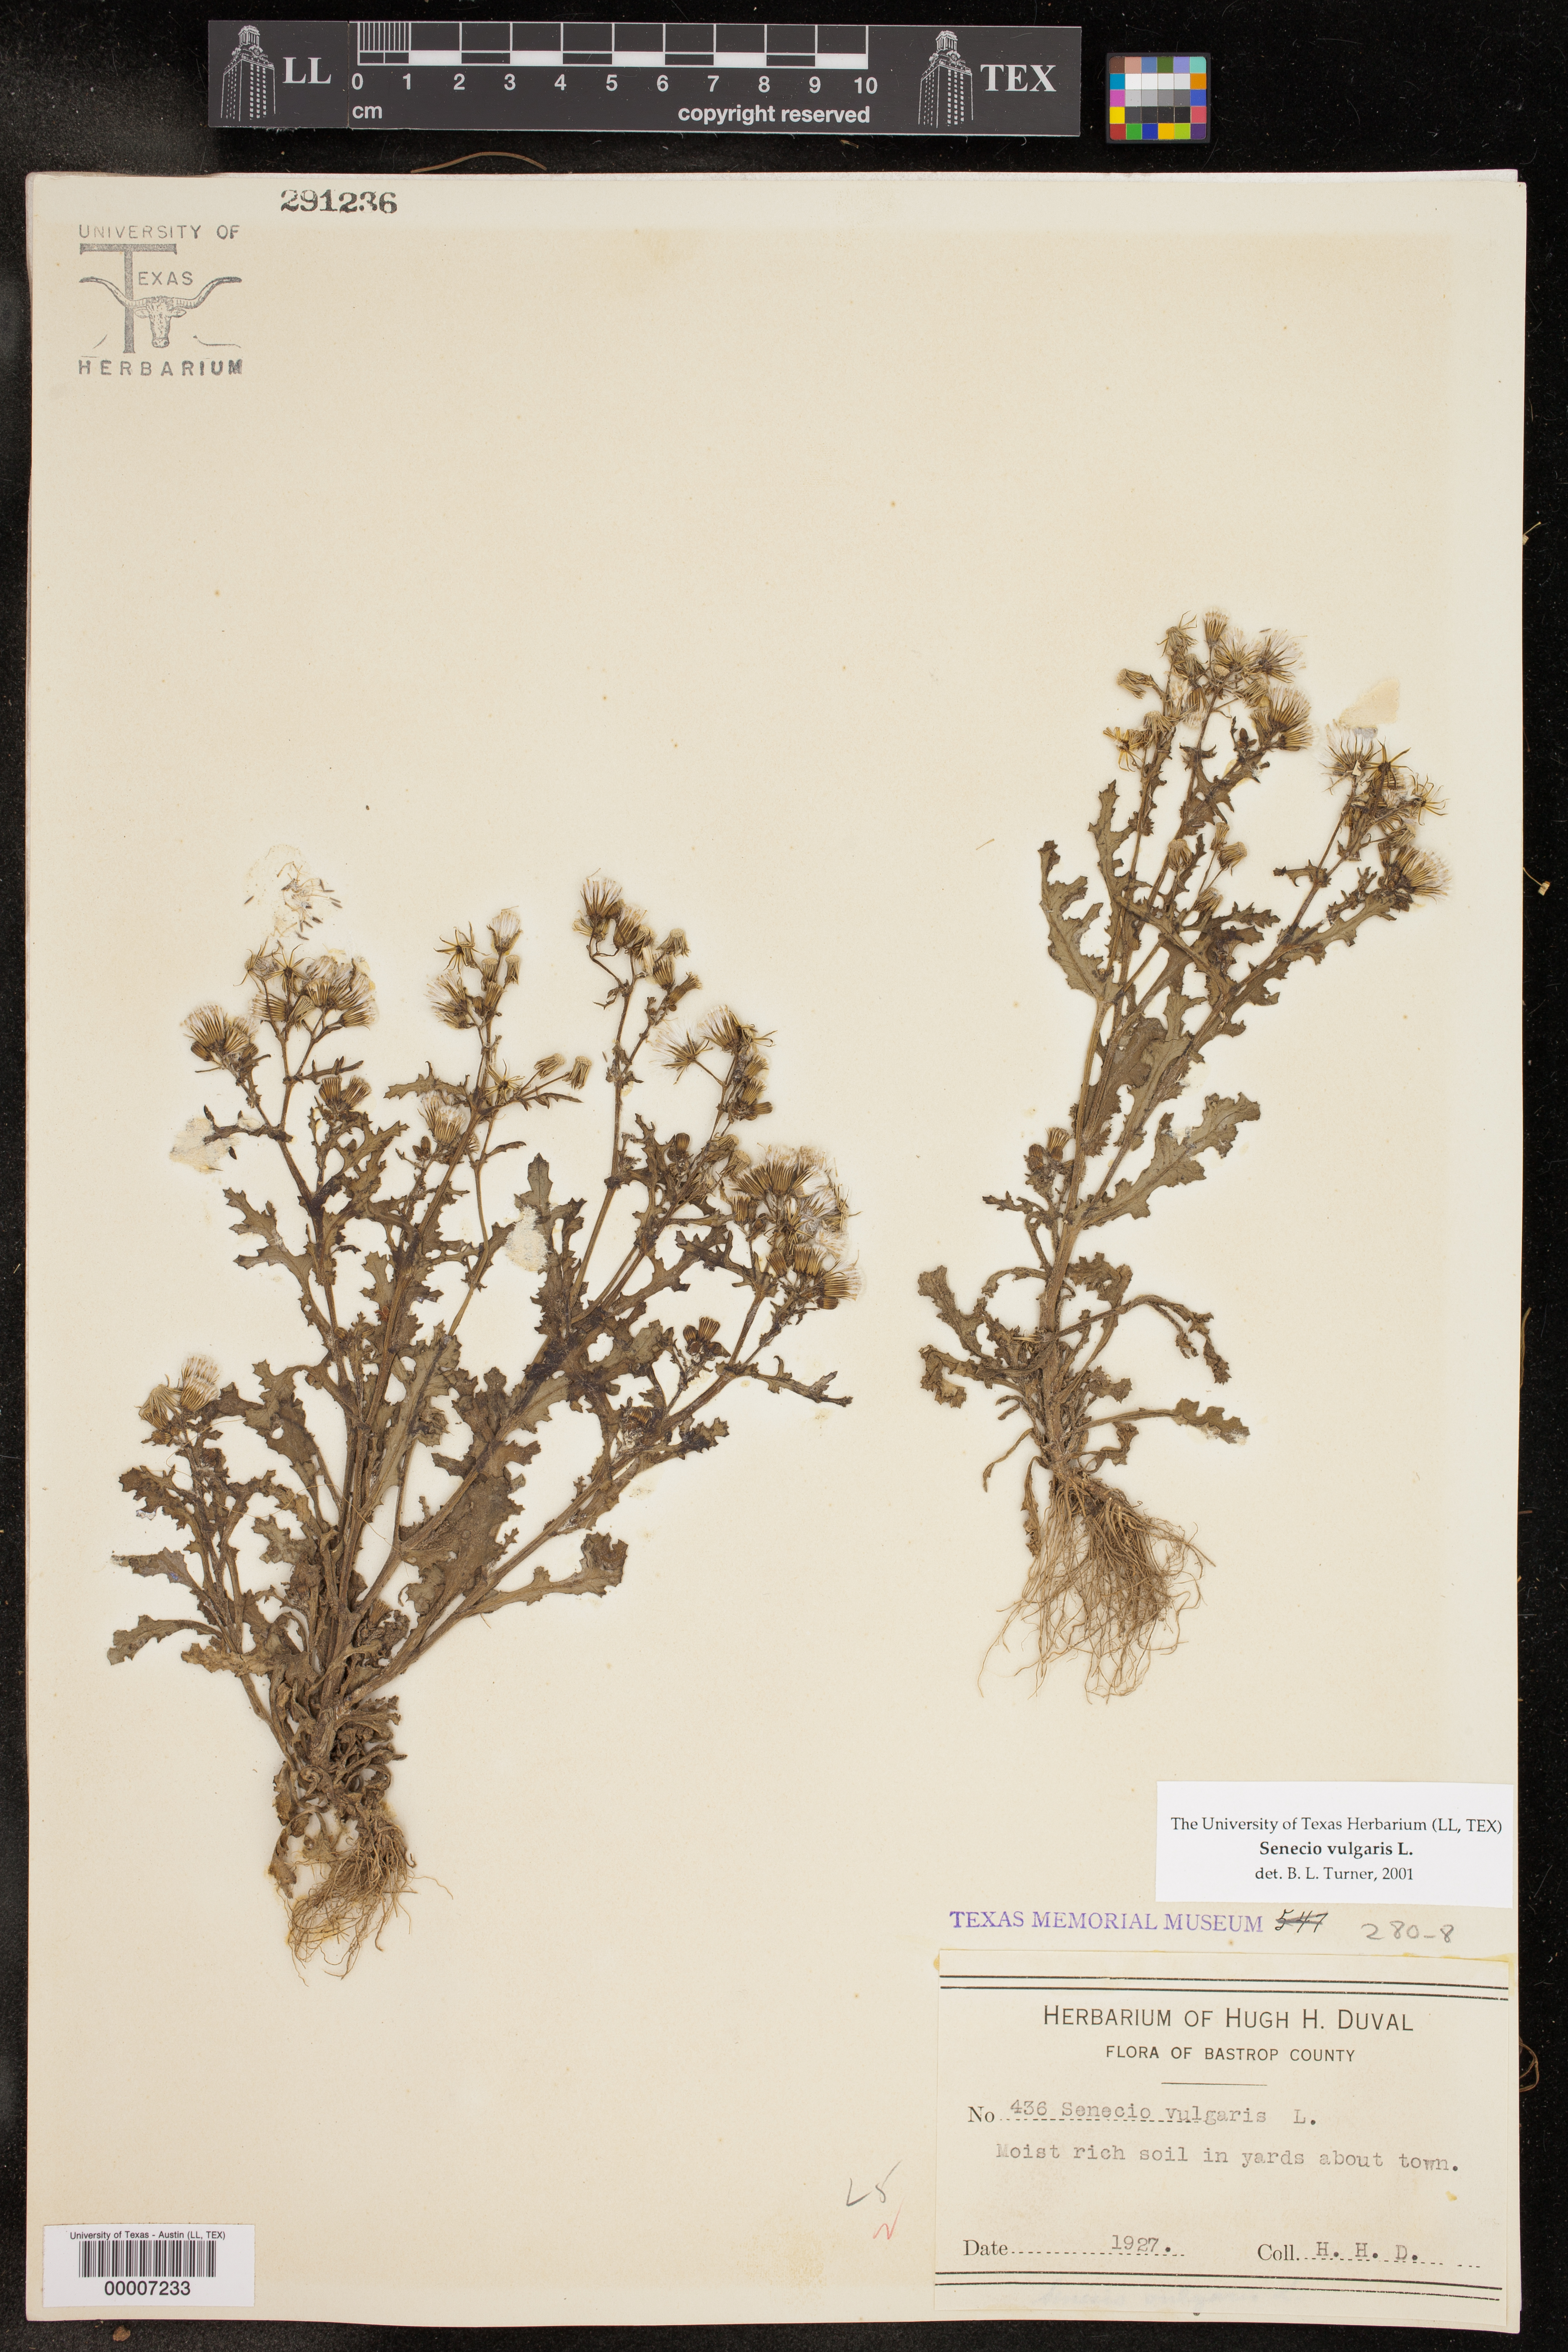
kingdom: Plantae
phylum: Tracheophyta
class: Magnoliopsida
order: Asterales
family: Asteraceae
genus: Senecio
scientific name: Senecio vulgaris
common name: Old-man-in-the-spring
